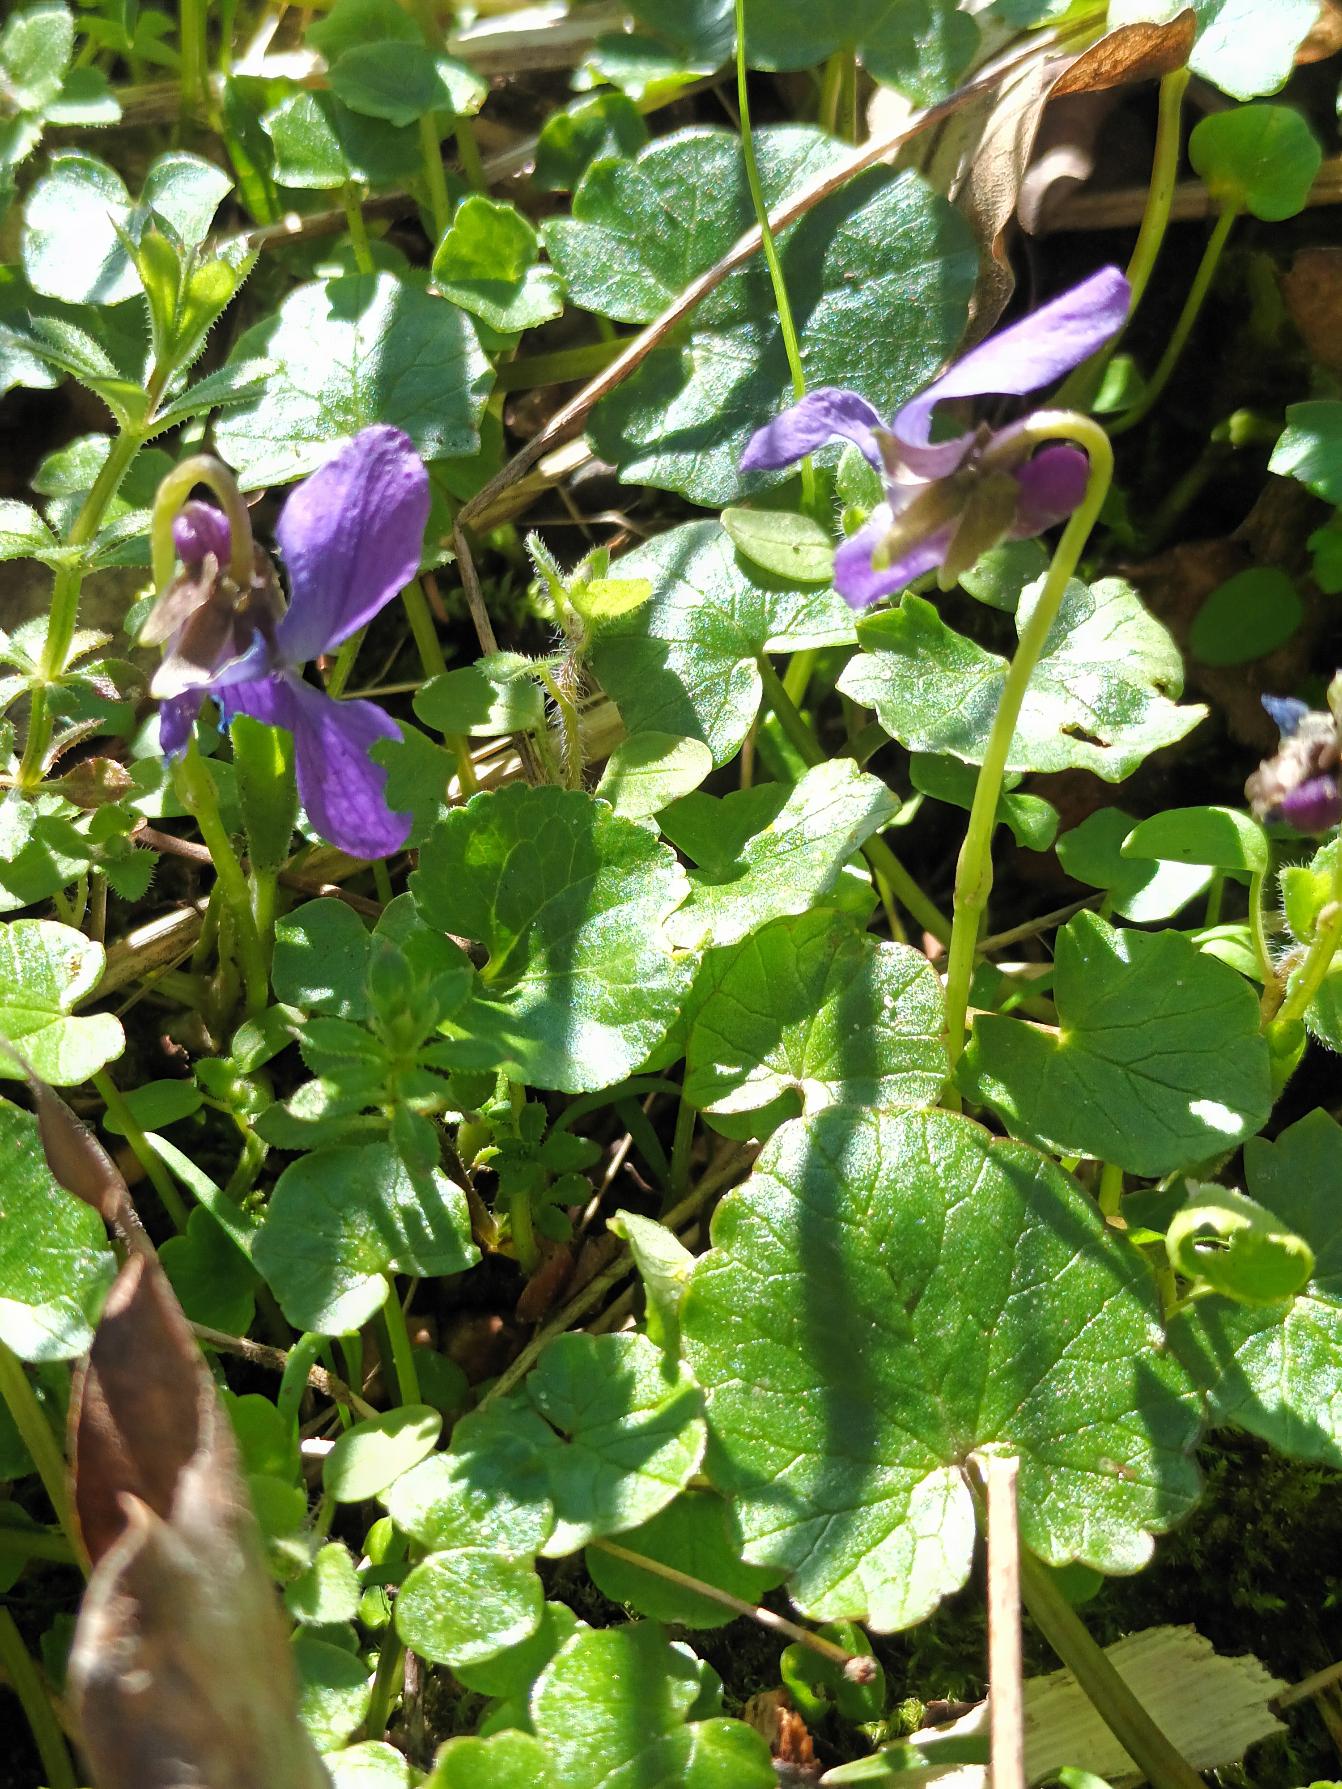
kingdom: Plantae
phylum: Tracheophyta
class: Magnoliopsida
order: Malpighiales
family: Violaceae
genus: Viola
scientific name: Viola odorata
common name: Marts-viol
